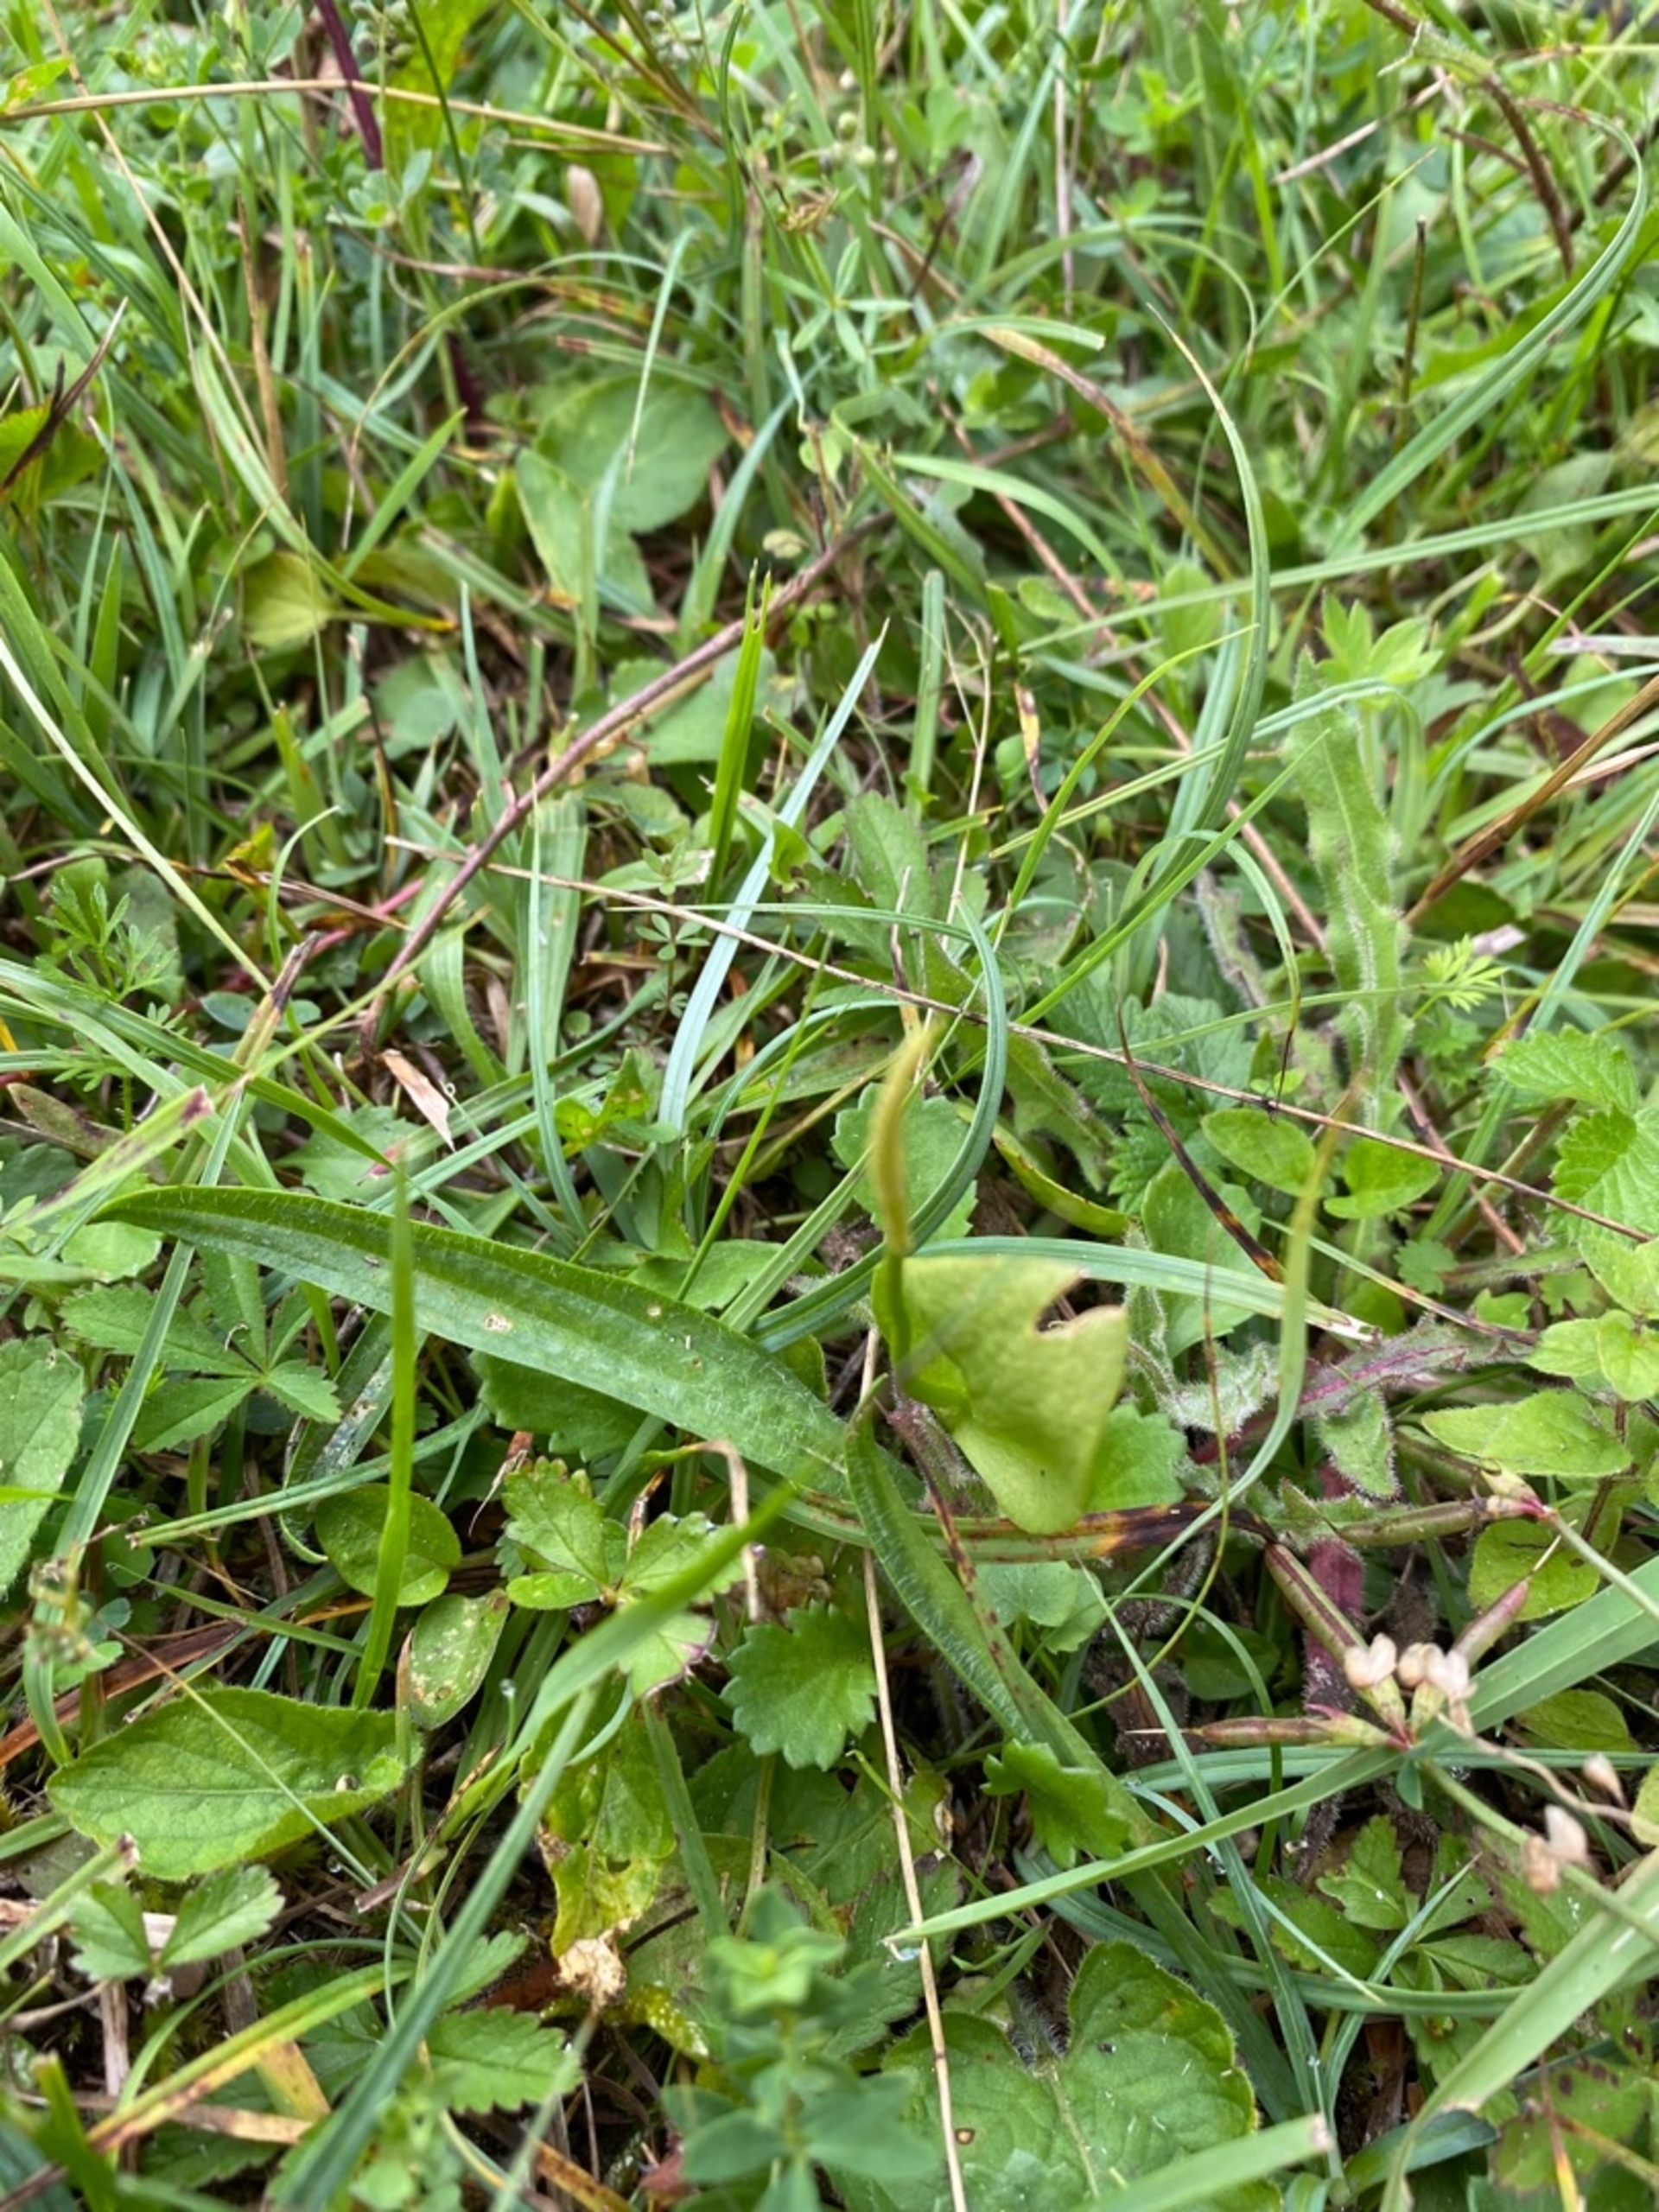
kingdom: Plantae
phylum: Tracheophyta
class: Polypodiopsida
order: Ophioglossales
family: Ophioglossaceae
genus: Ophioglossum
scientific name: Ophioglossum vulgatum
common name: Slangetunge
